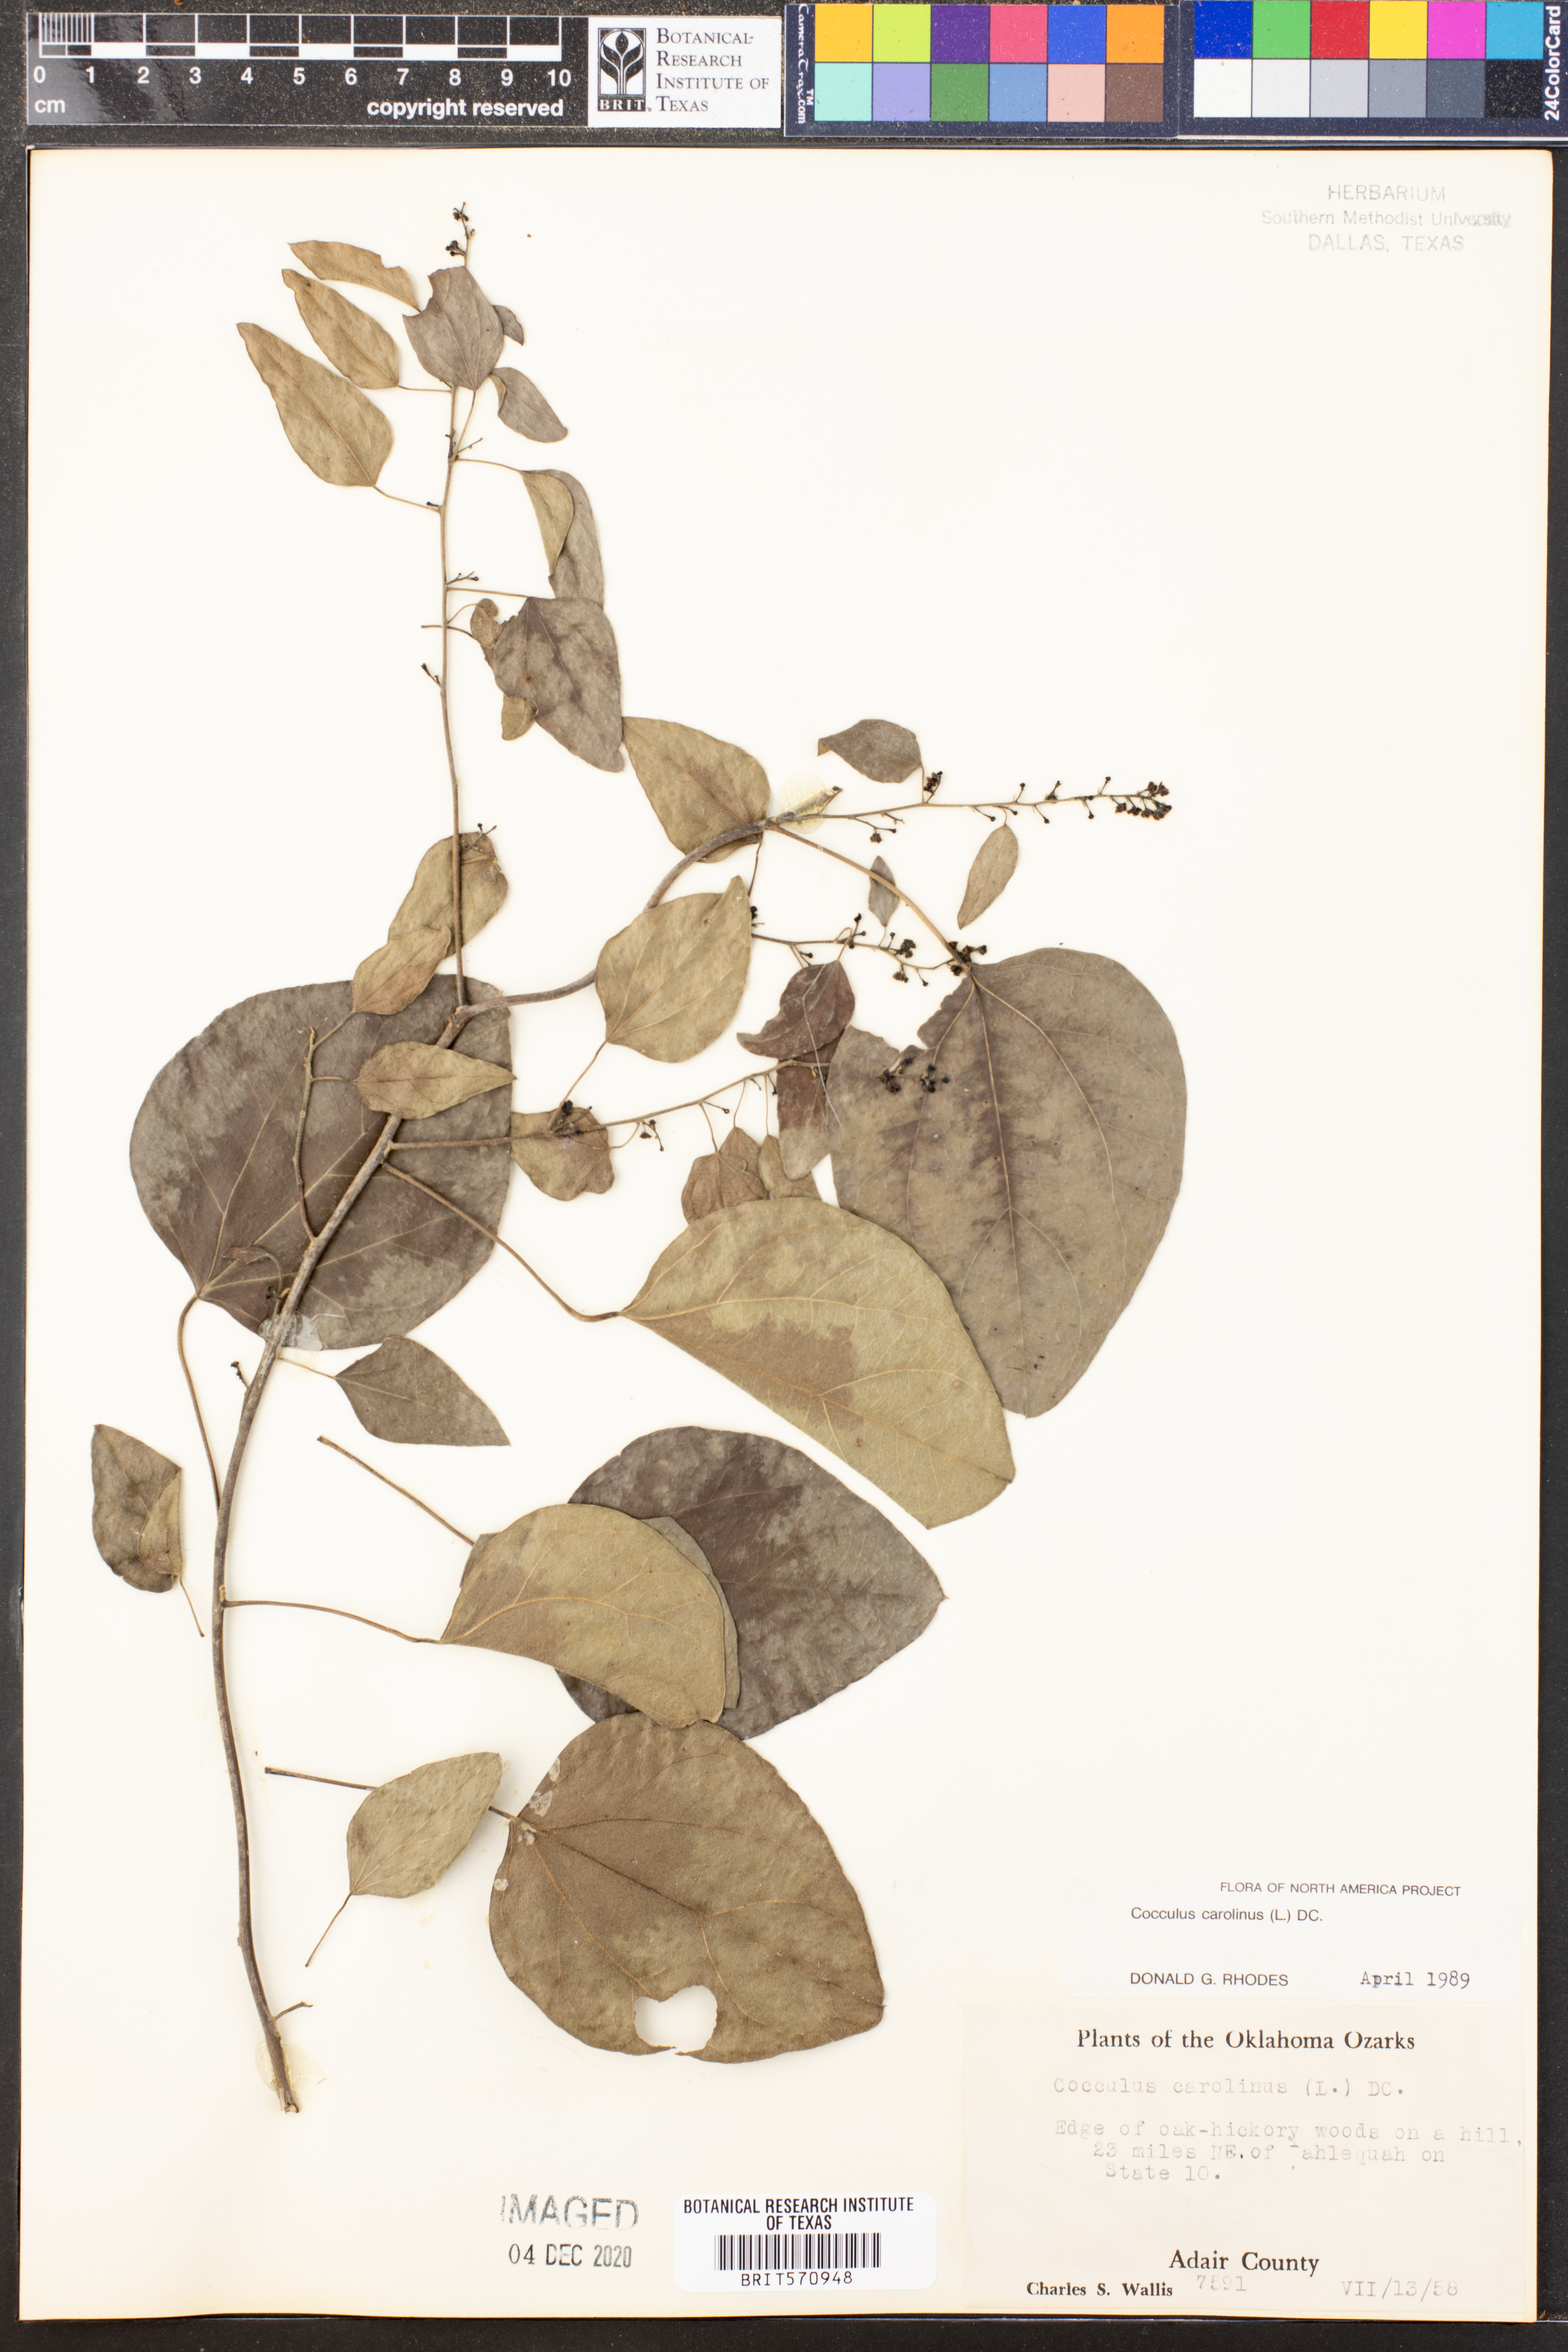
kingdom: Plantae
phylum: Tracheophyta
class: Magnoliopsida
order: Ranunculales
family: Menispermaceae
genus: Cocculus
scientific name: Cocculus carolinus
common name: Carolina moonseed
